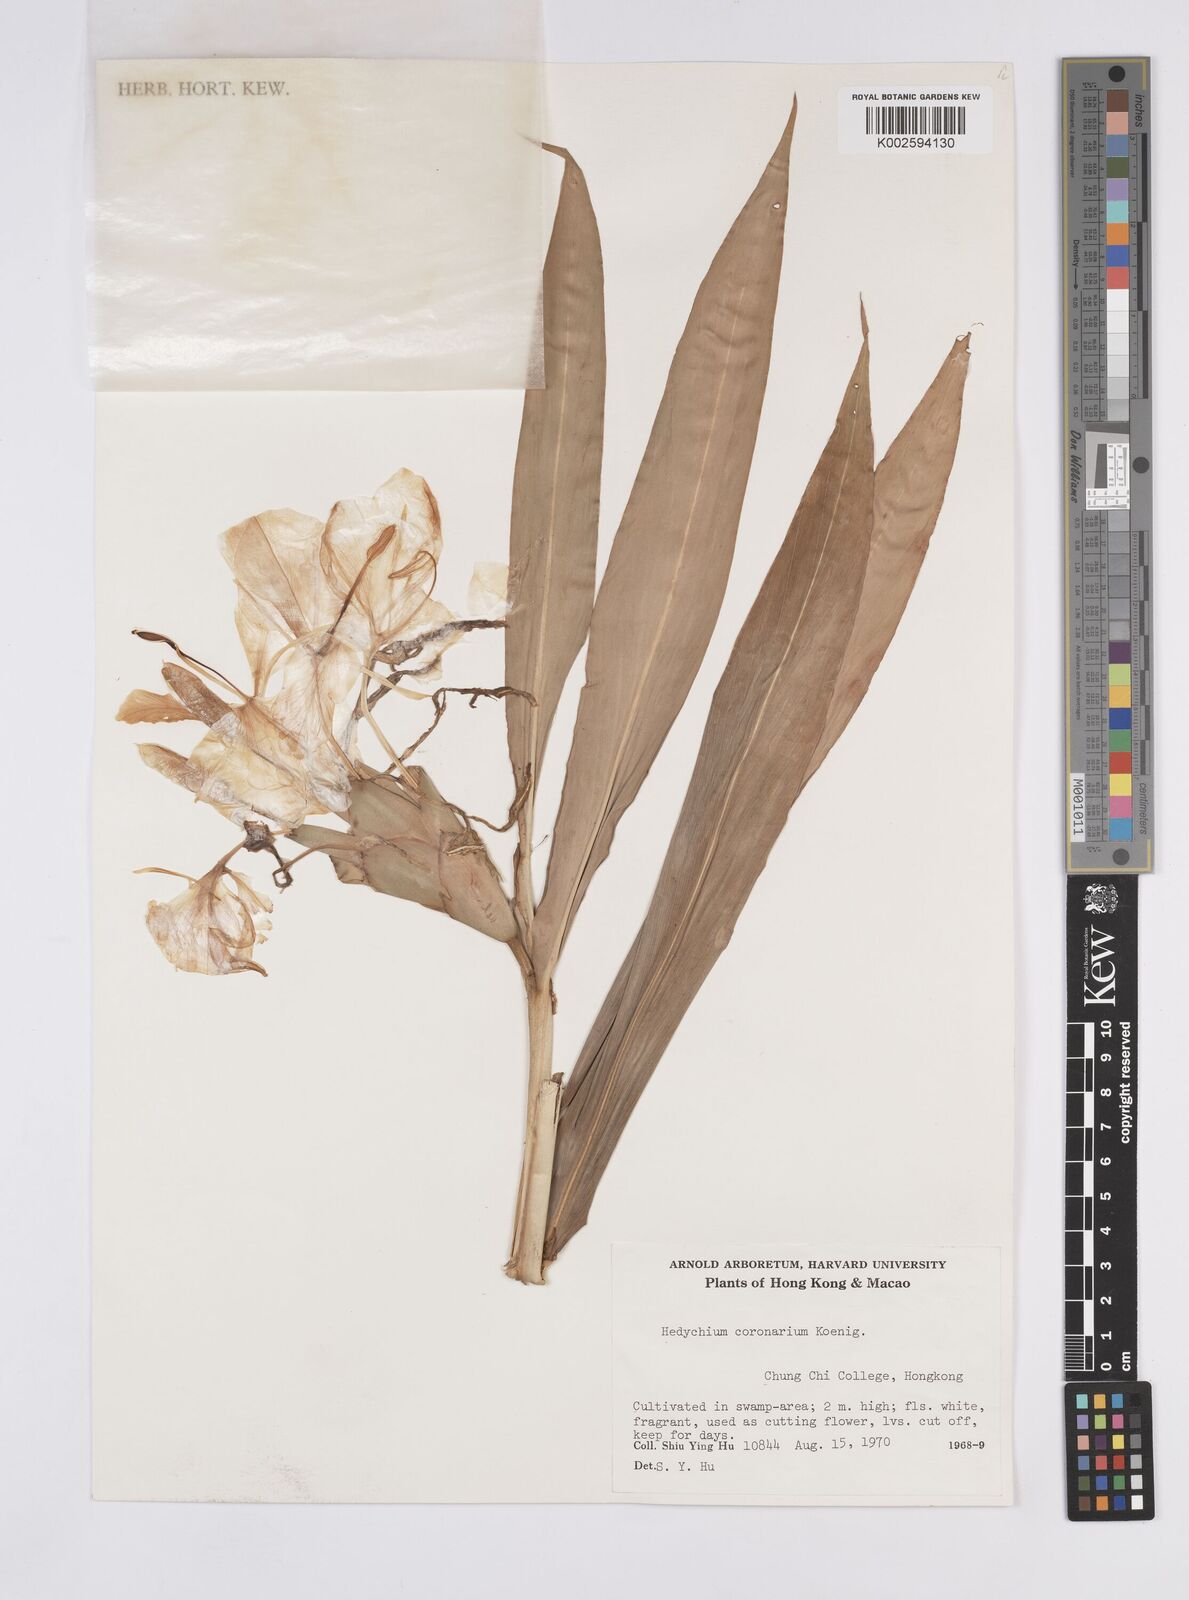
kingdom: Plantae
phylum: Tracheophyta
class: Liliopsida
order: Zingiberales
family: Zingiberaceae
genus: Hedychium
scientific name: Hedychium coronarium
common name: White garland-lily
